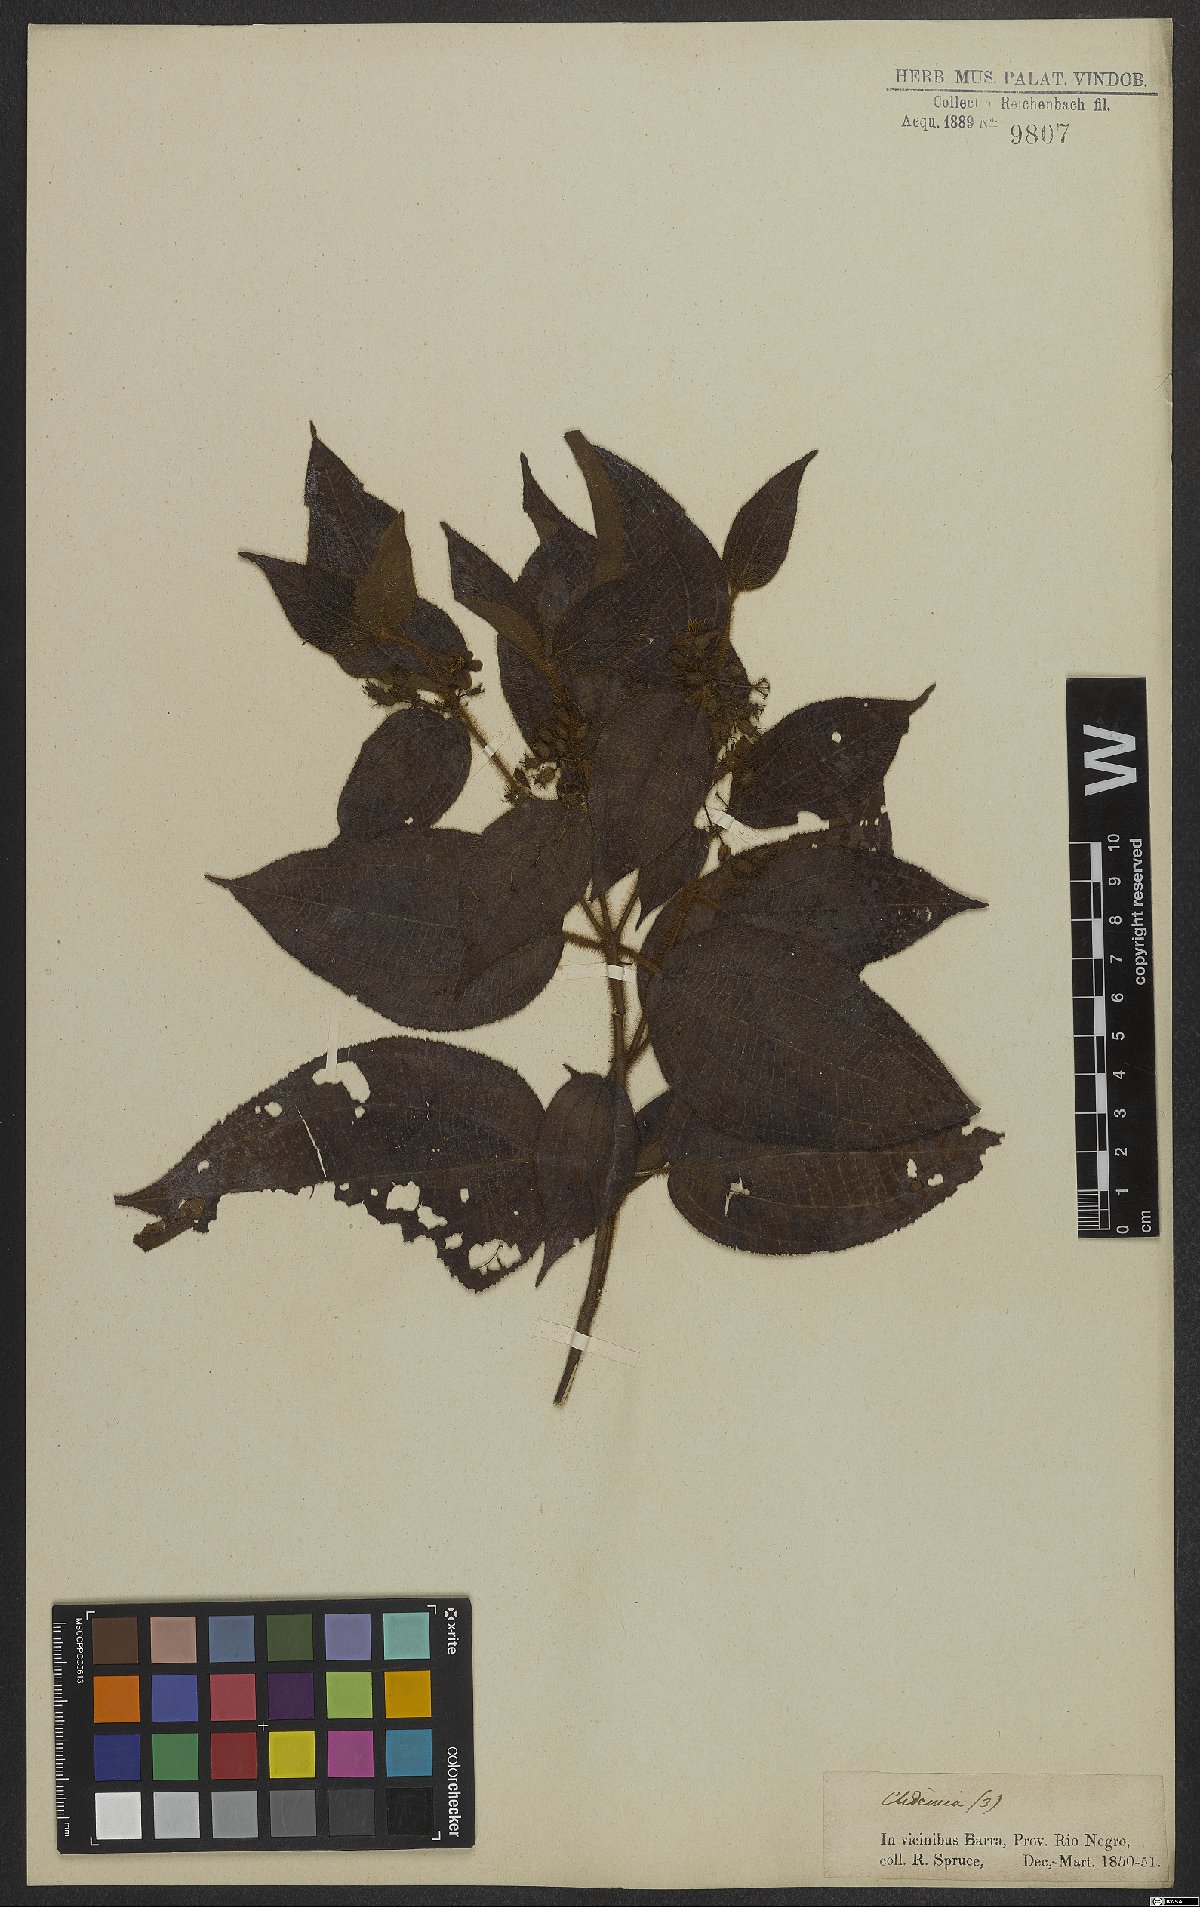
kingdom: Plantae
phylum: Tracheophyta
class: Magnoliopsida
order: Myrtales
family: Melastomataceae
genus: Miconia
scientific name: Miconia
